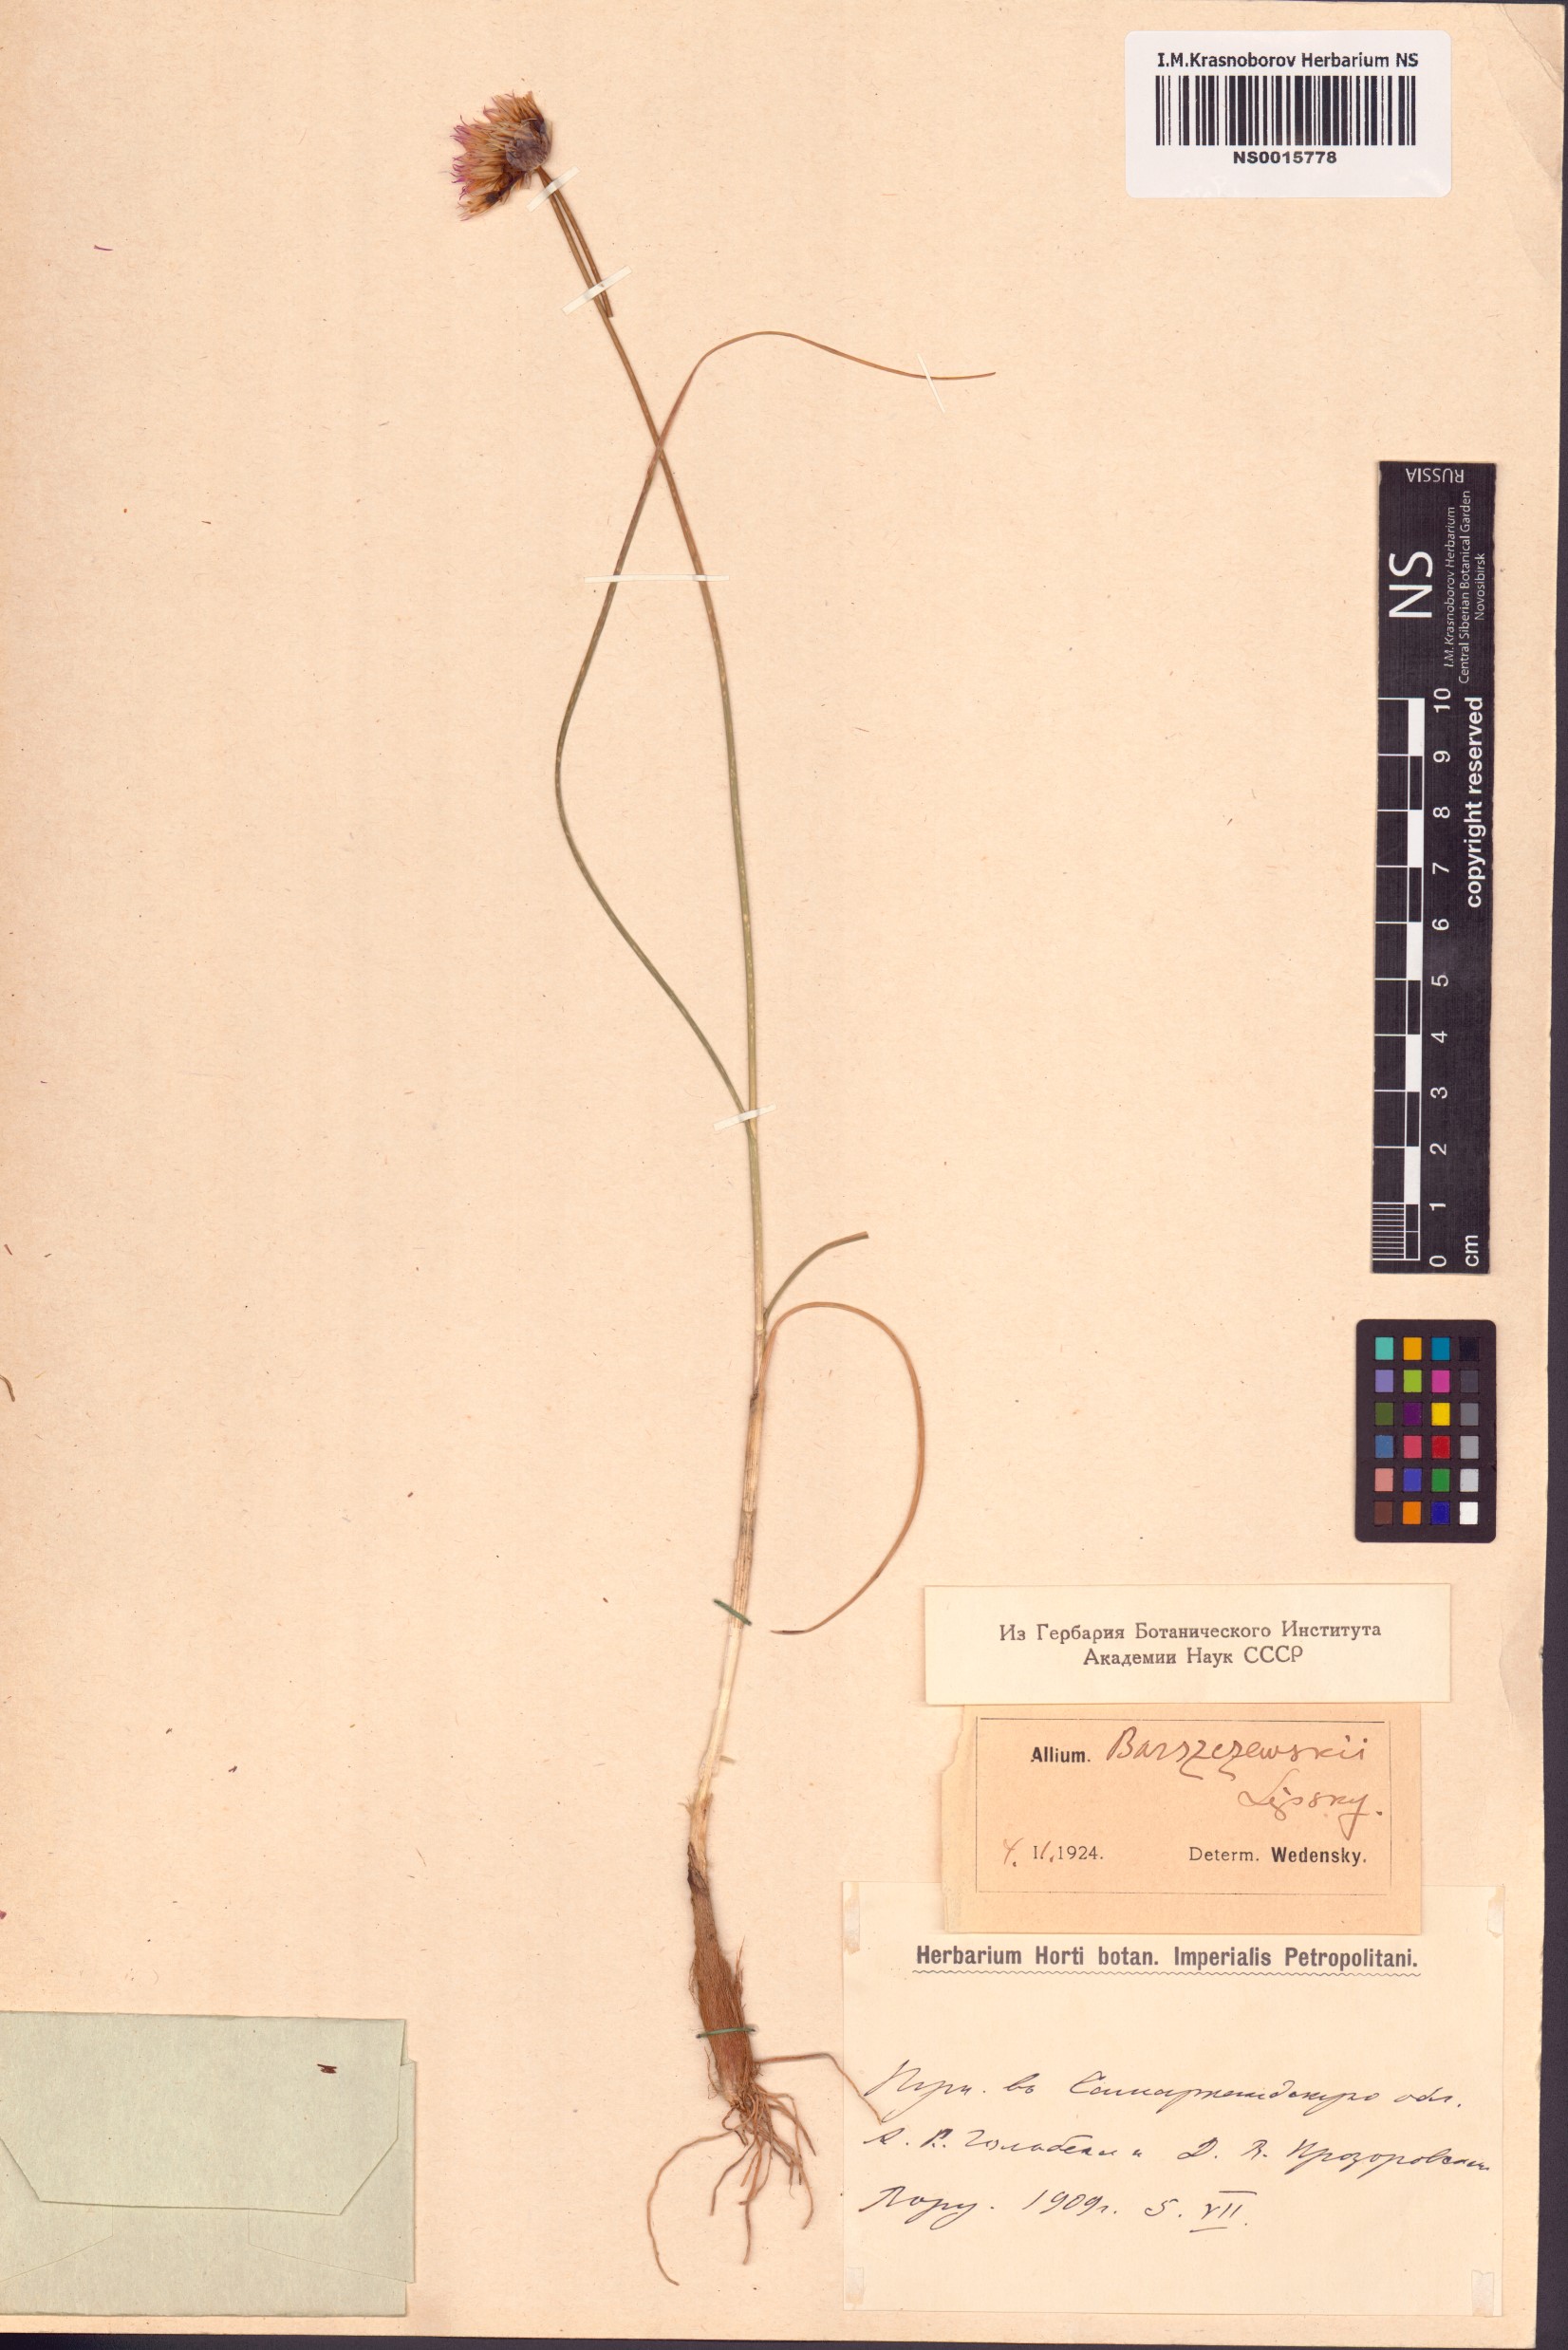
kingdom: Plantae
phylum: Tracheophyta
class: Liliopsida
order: Asparagales
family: Amaryllidaceae
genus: Allium
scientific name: Allium barsczewskii
